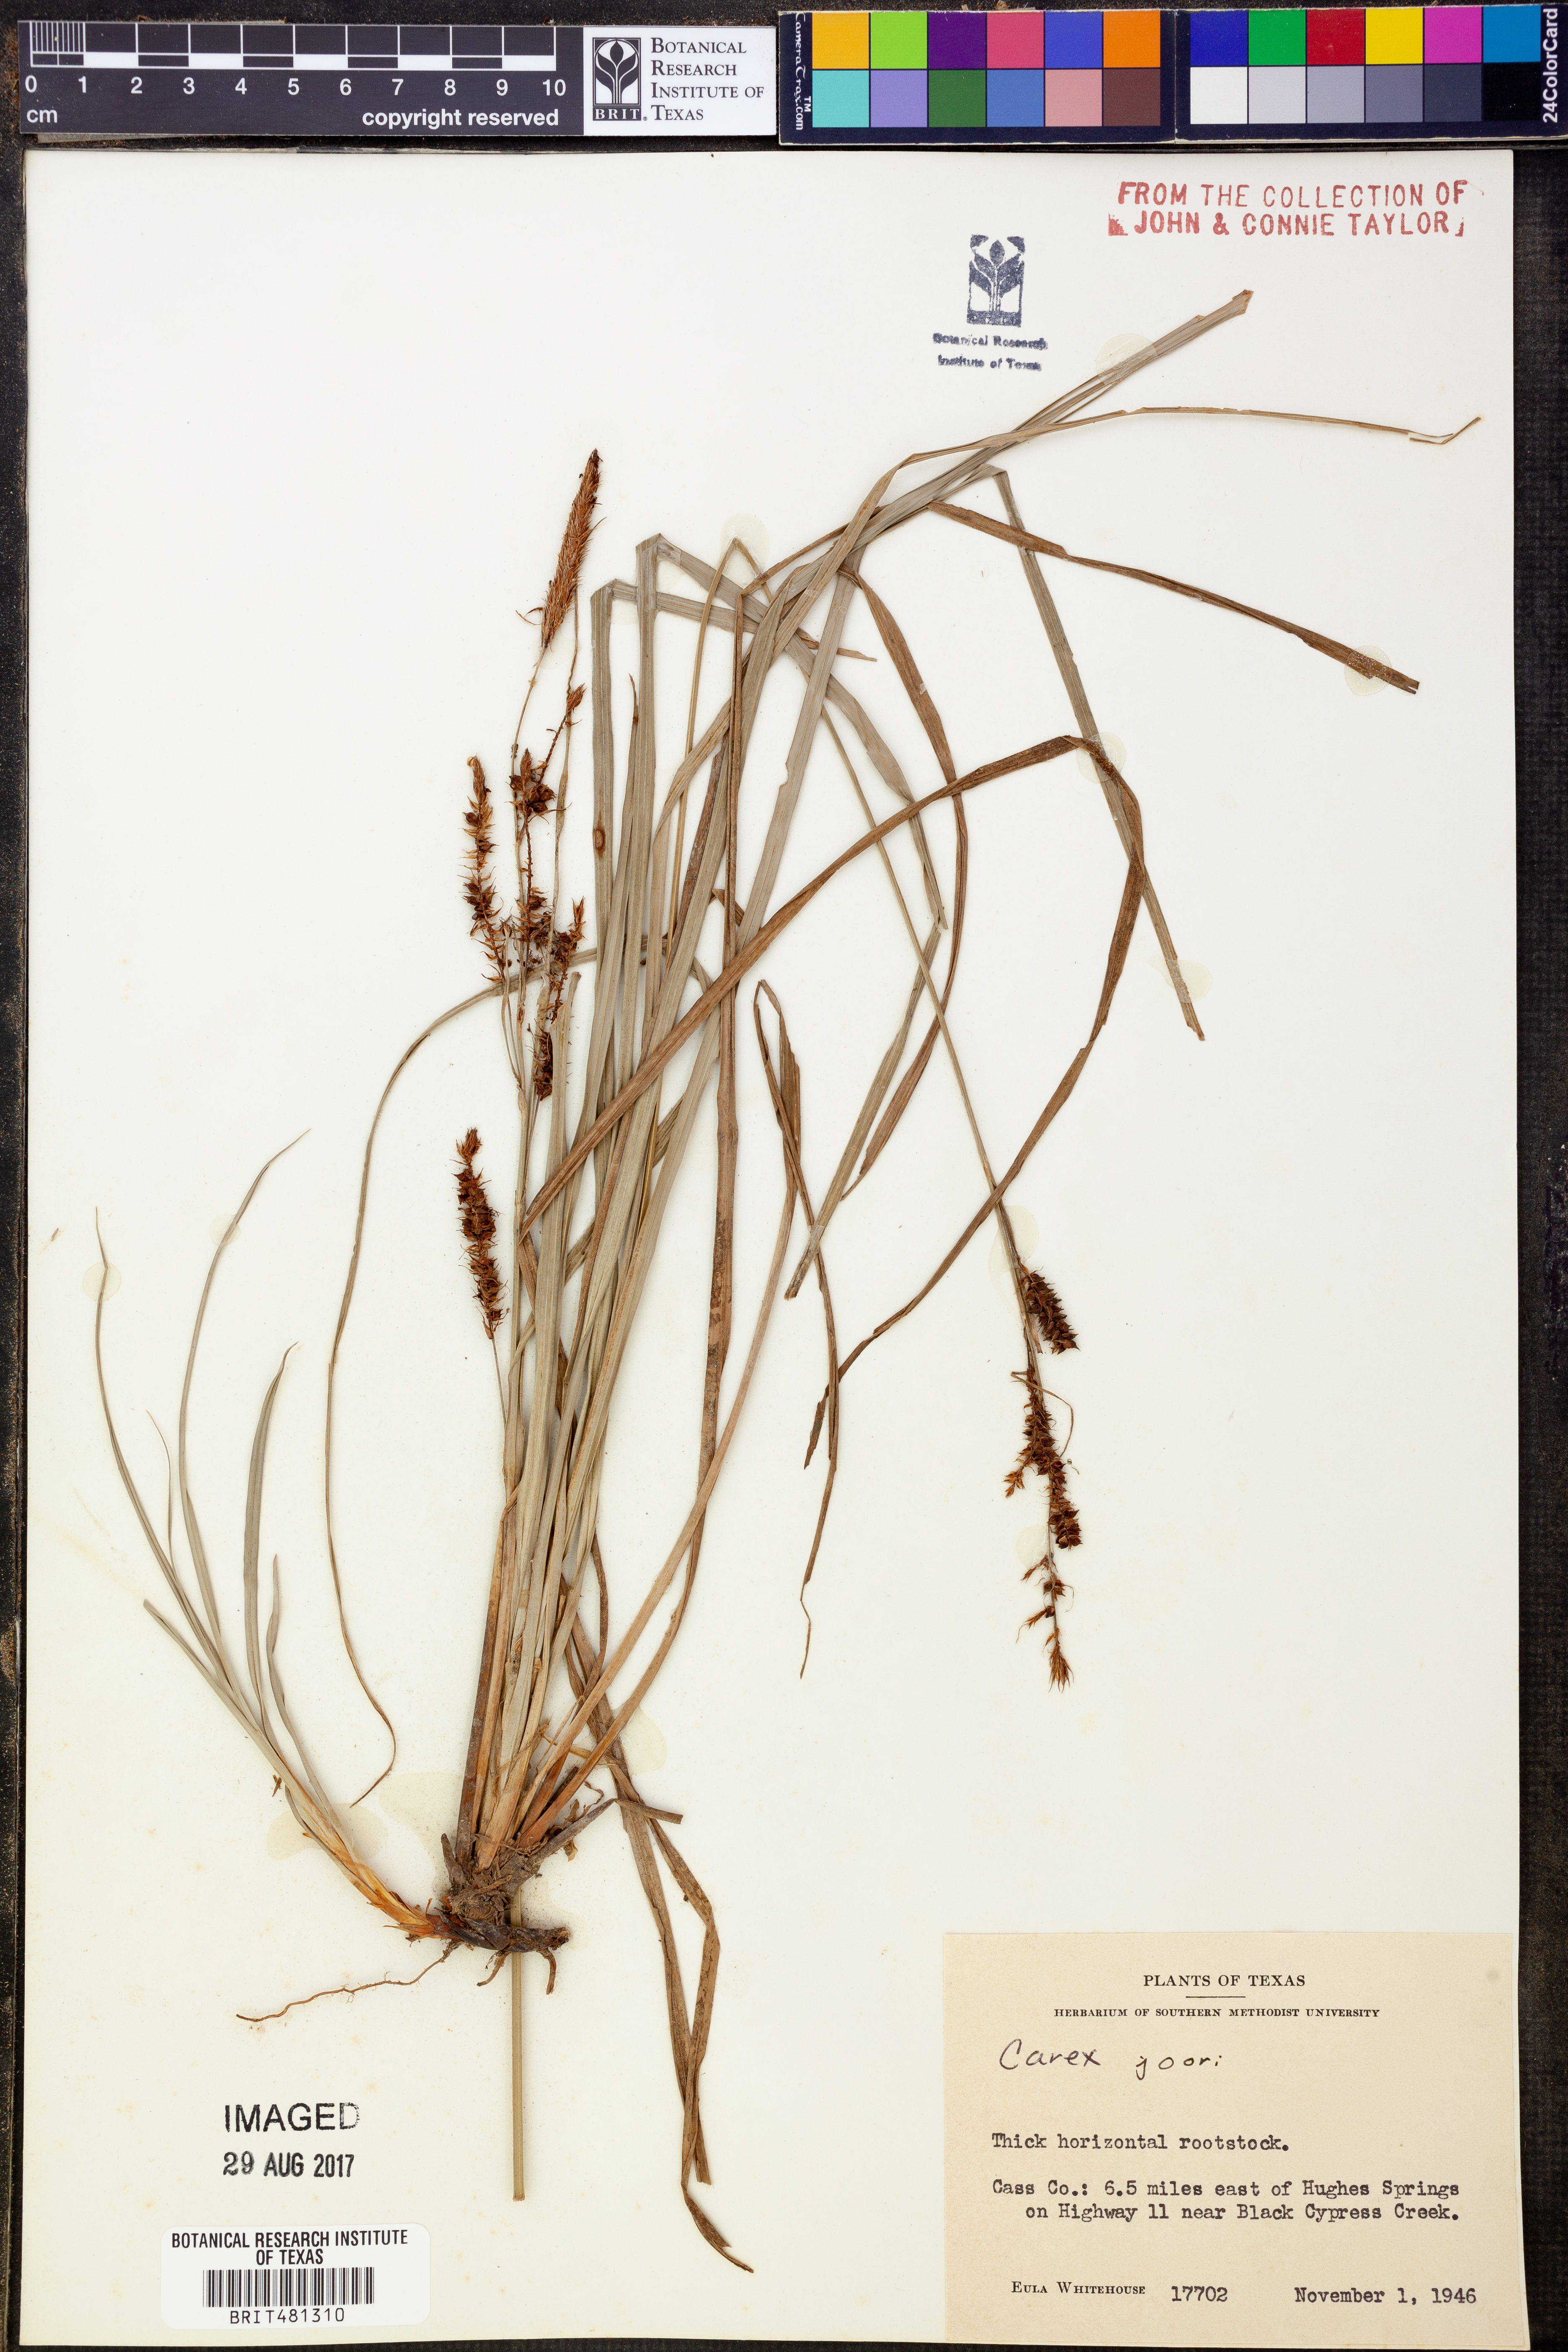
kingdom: Plantae
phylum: Tracheophyta
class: Liliopsida
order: Poales
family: Cyperaceae
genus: Carex
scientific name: Carex joorii
